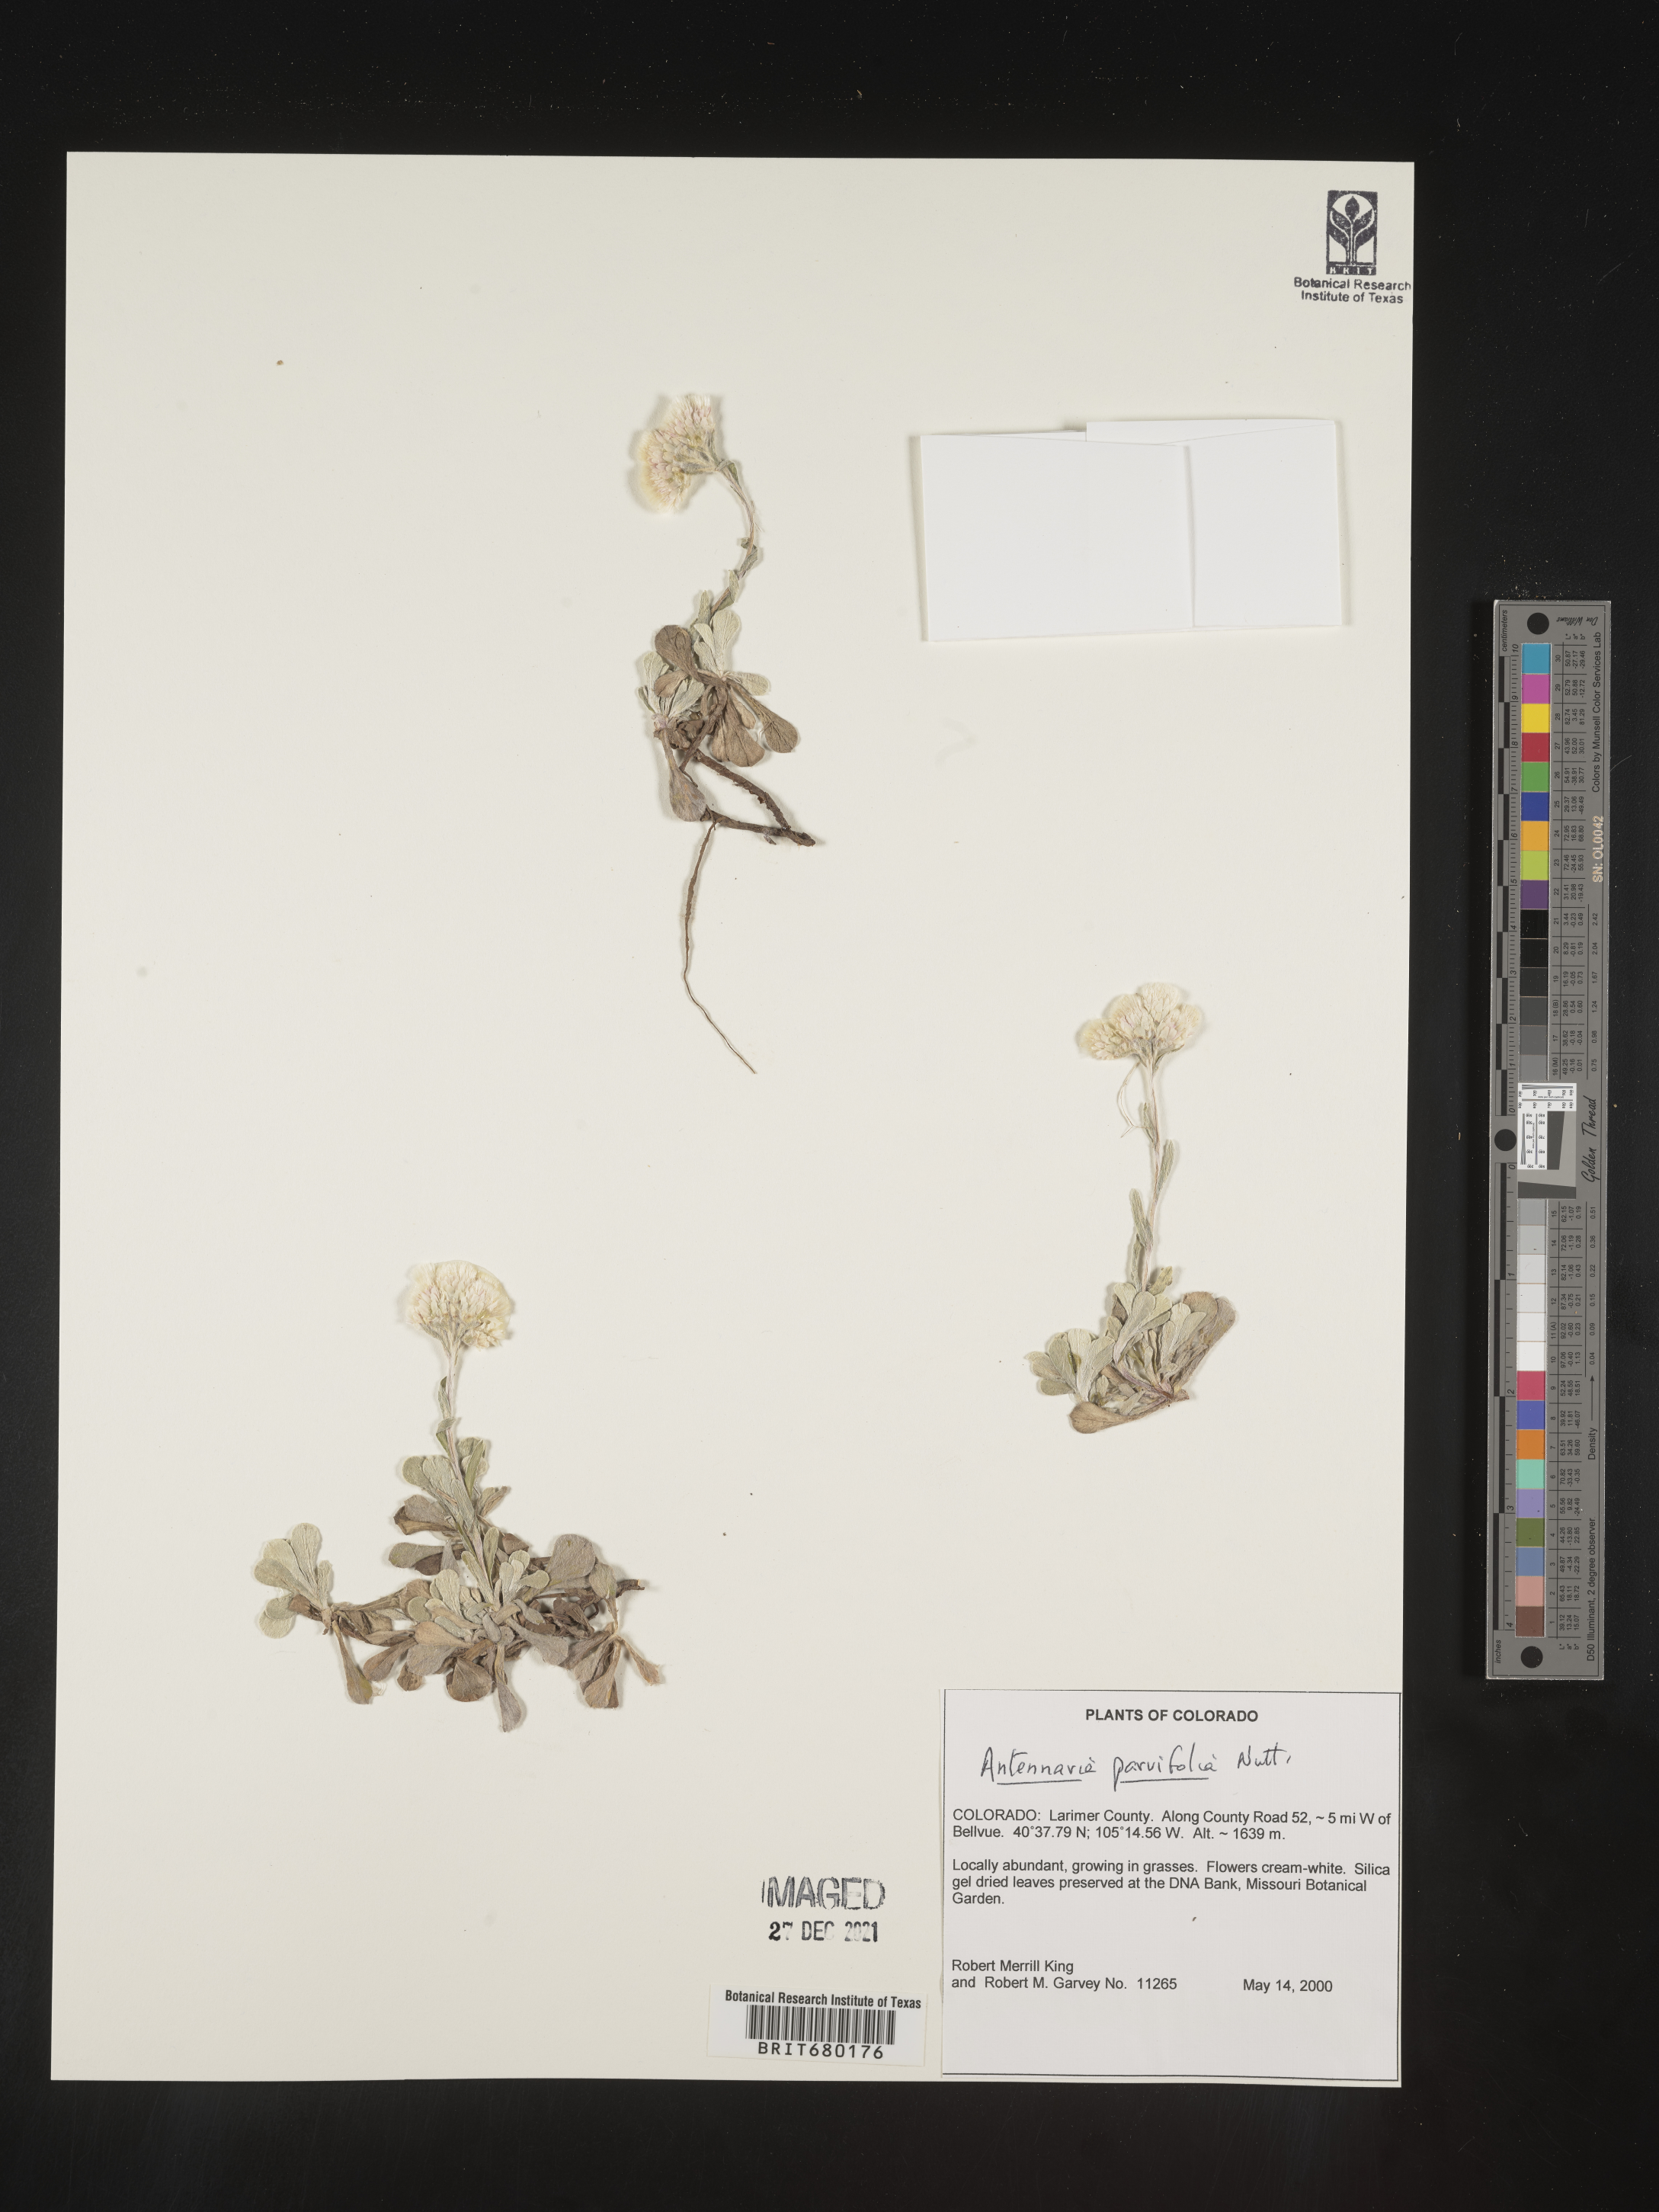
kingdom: Plantae
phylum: Tracheophyta
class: Magnoliopsida
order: Asterales
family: Asteraceae
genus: Antennaria
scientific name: Antennaria plantaginifolia
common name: Plantain-leaved pussytoes
